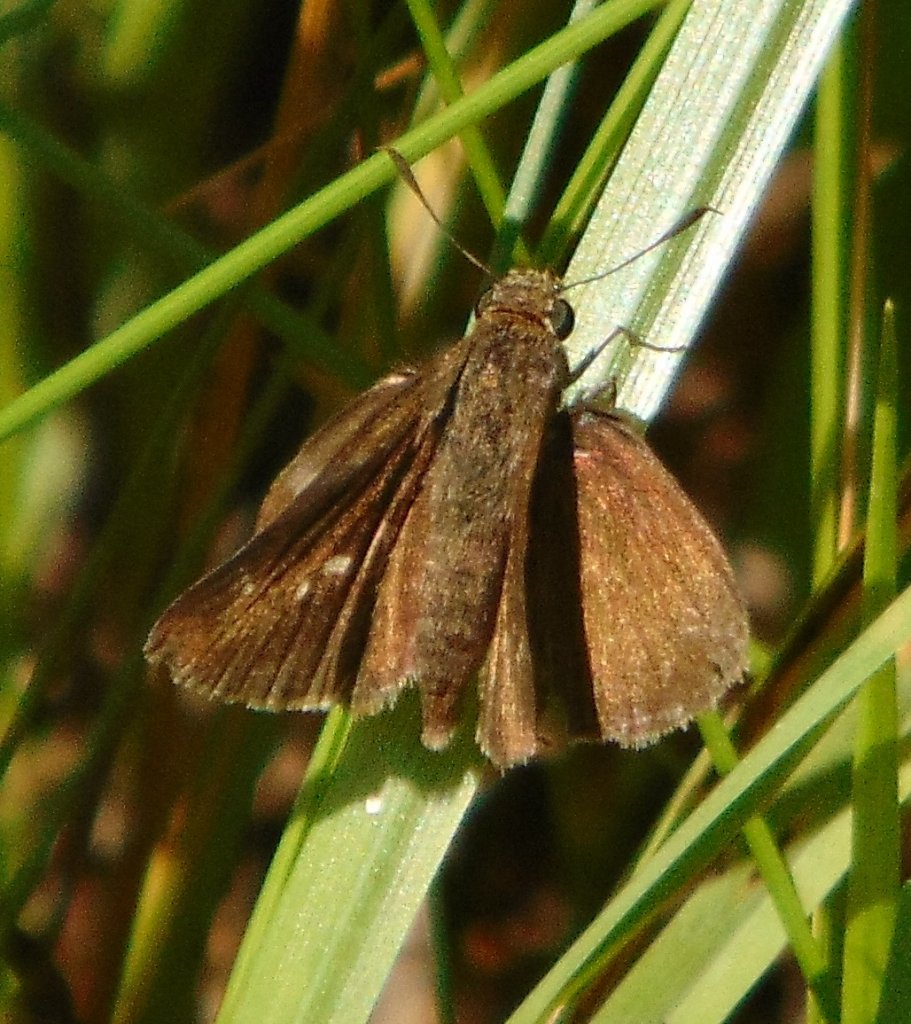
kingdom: Animalia
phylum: Arthropoda
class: Insecta
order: Lepidoptera
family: Hesperiidae
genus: Euphyes
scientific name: Euphyes vestris
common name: Dun Skipper
